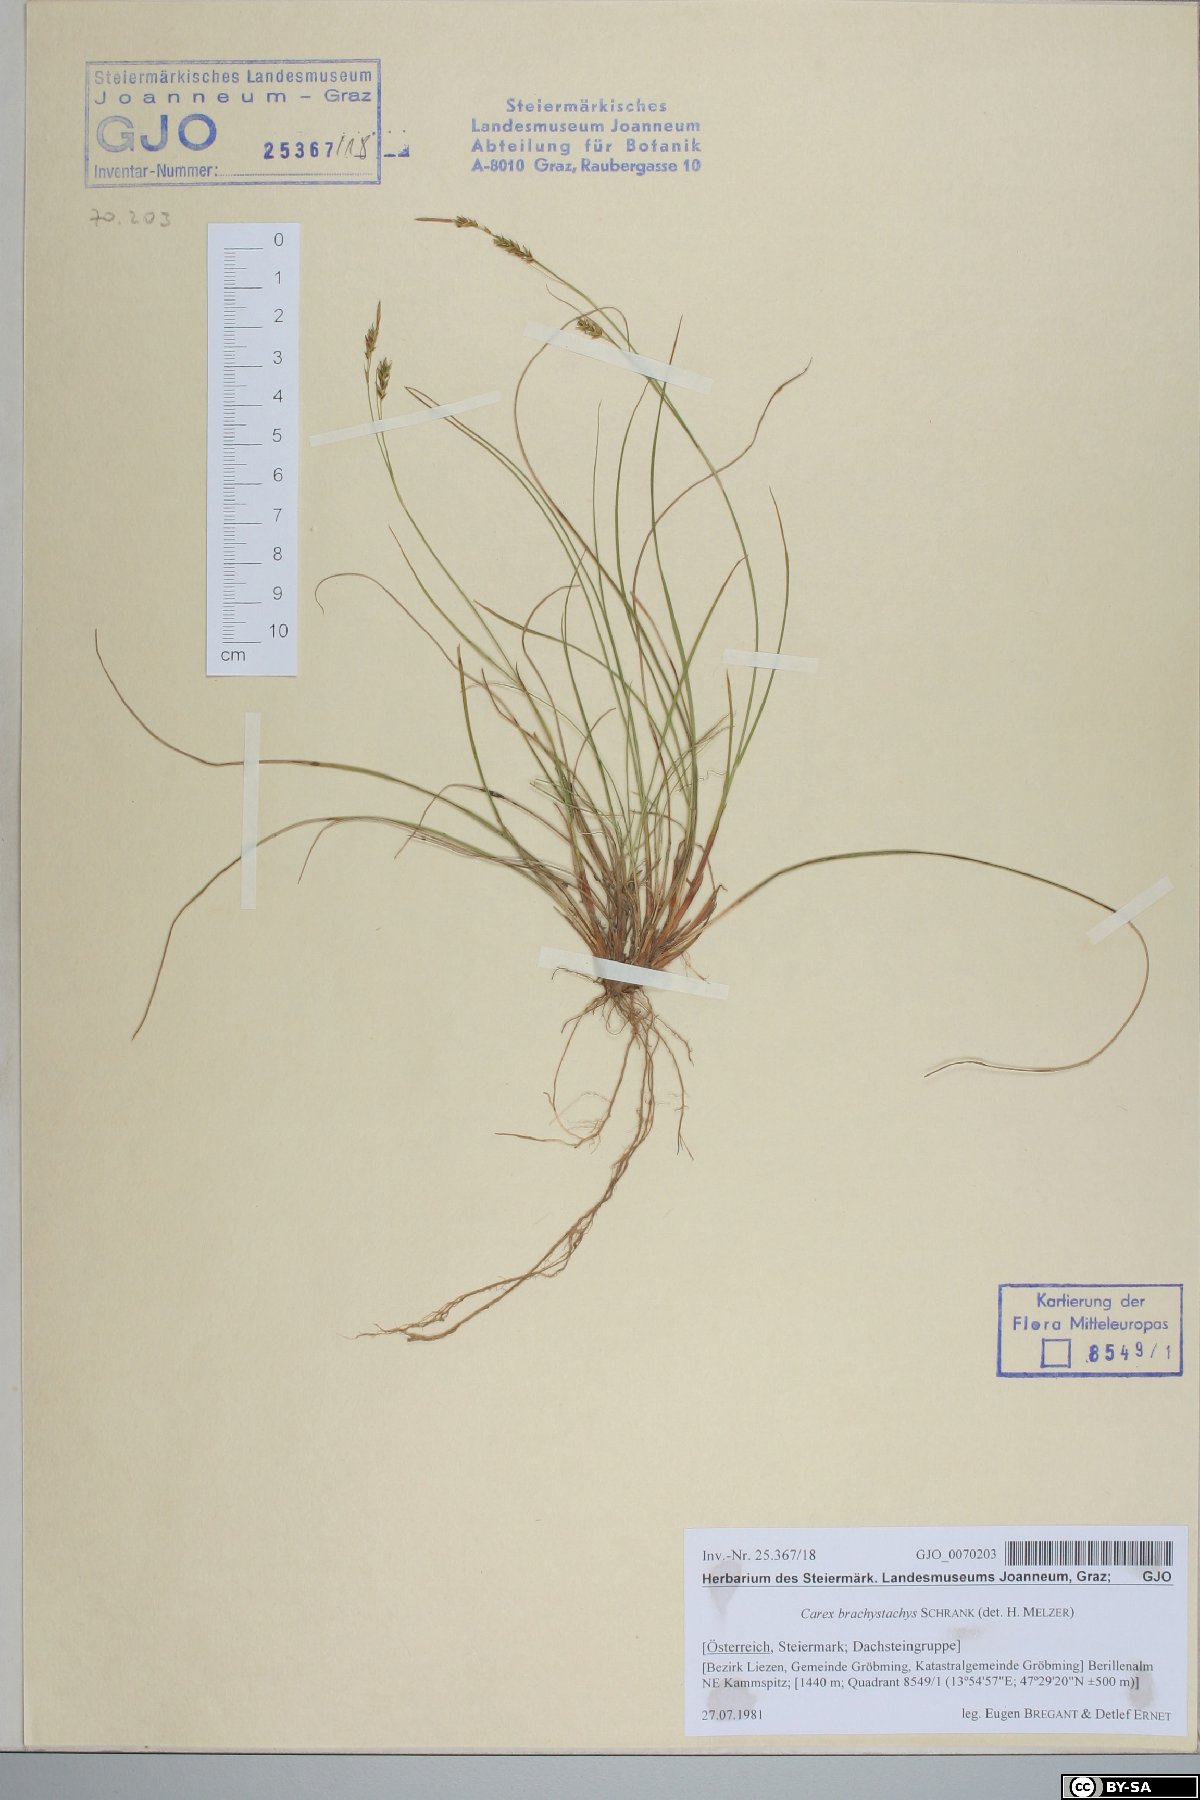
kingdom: Plantae
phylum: Tracheophyta
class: Liliopsida
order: Poales
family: Cyperaceae
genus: Carex
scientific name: Carex brachystachys
